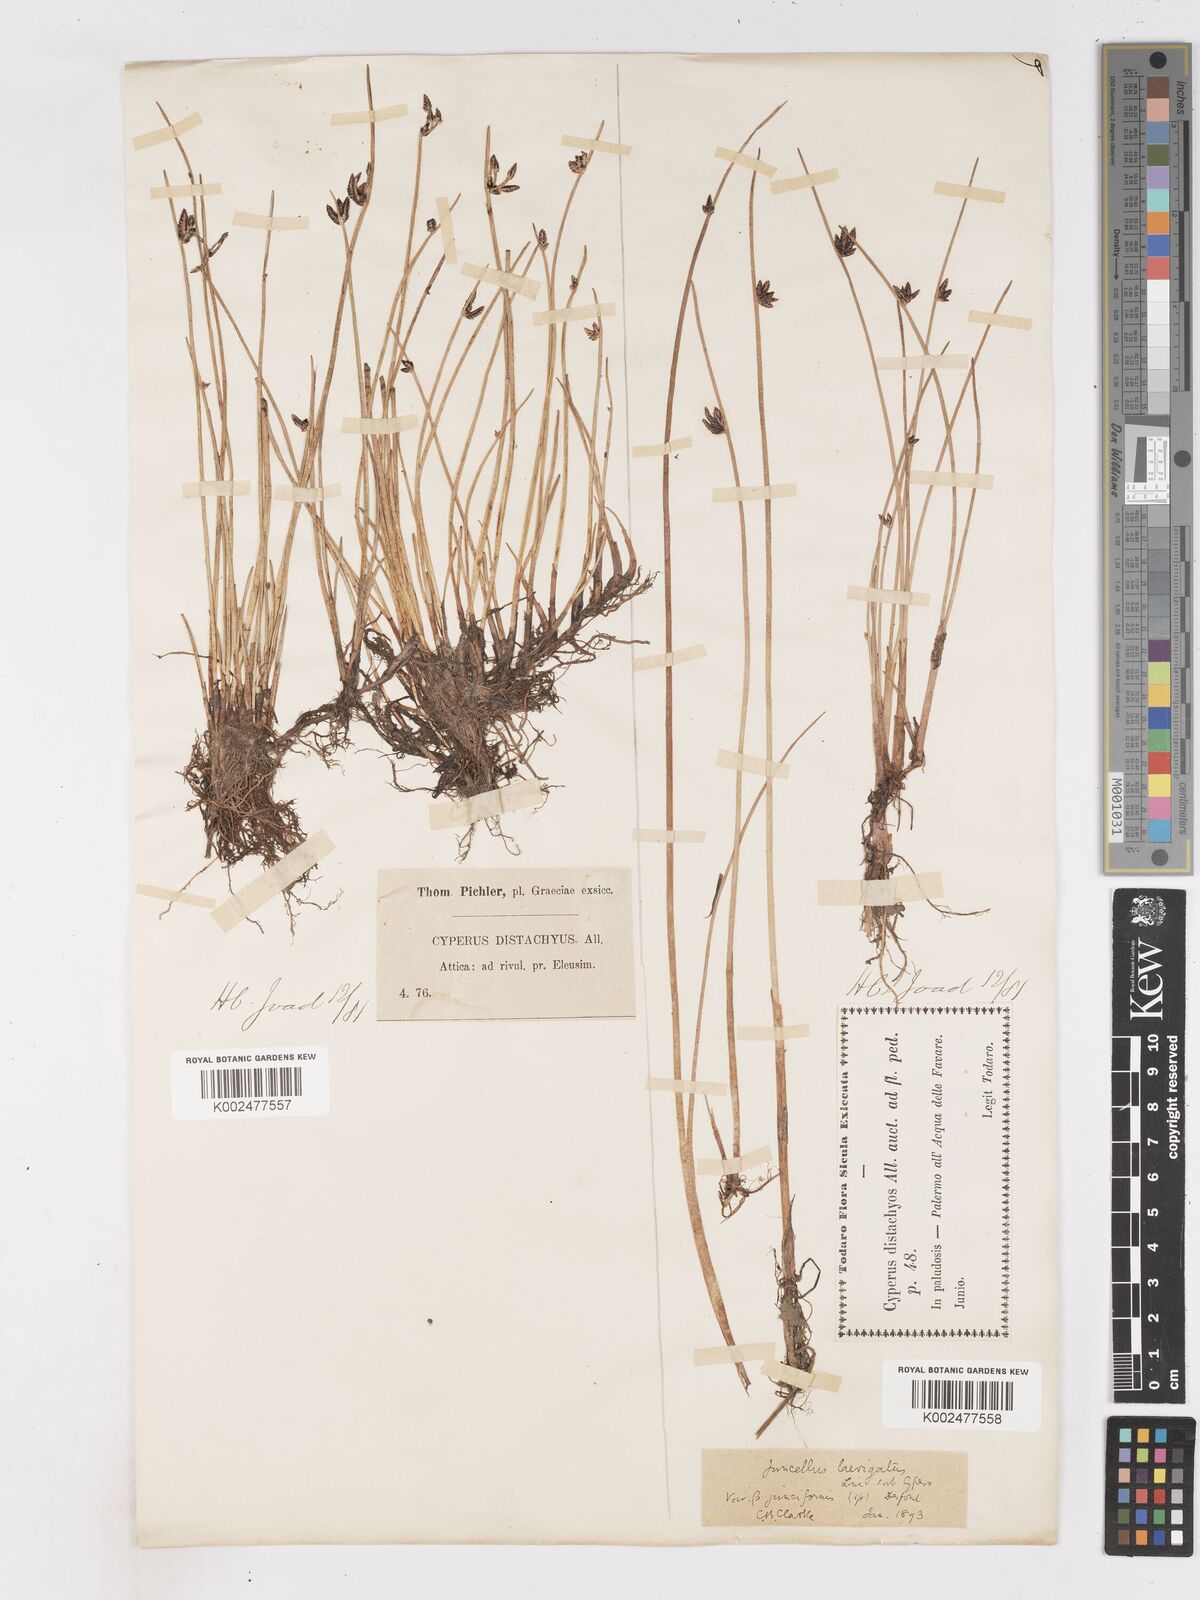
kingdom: Plantae
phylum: Tracheophyta
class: Liliopsida
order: Poales
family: Cyperaceae
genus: Cyperus
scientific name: Cyperus laevigatus
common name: Smooth flat sedge
